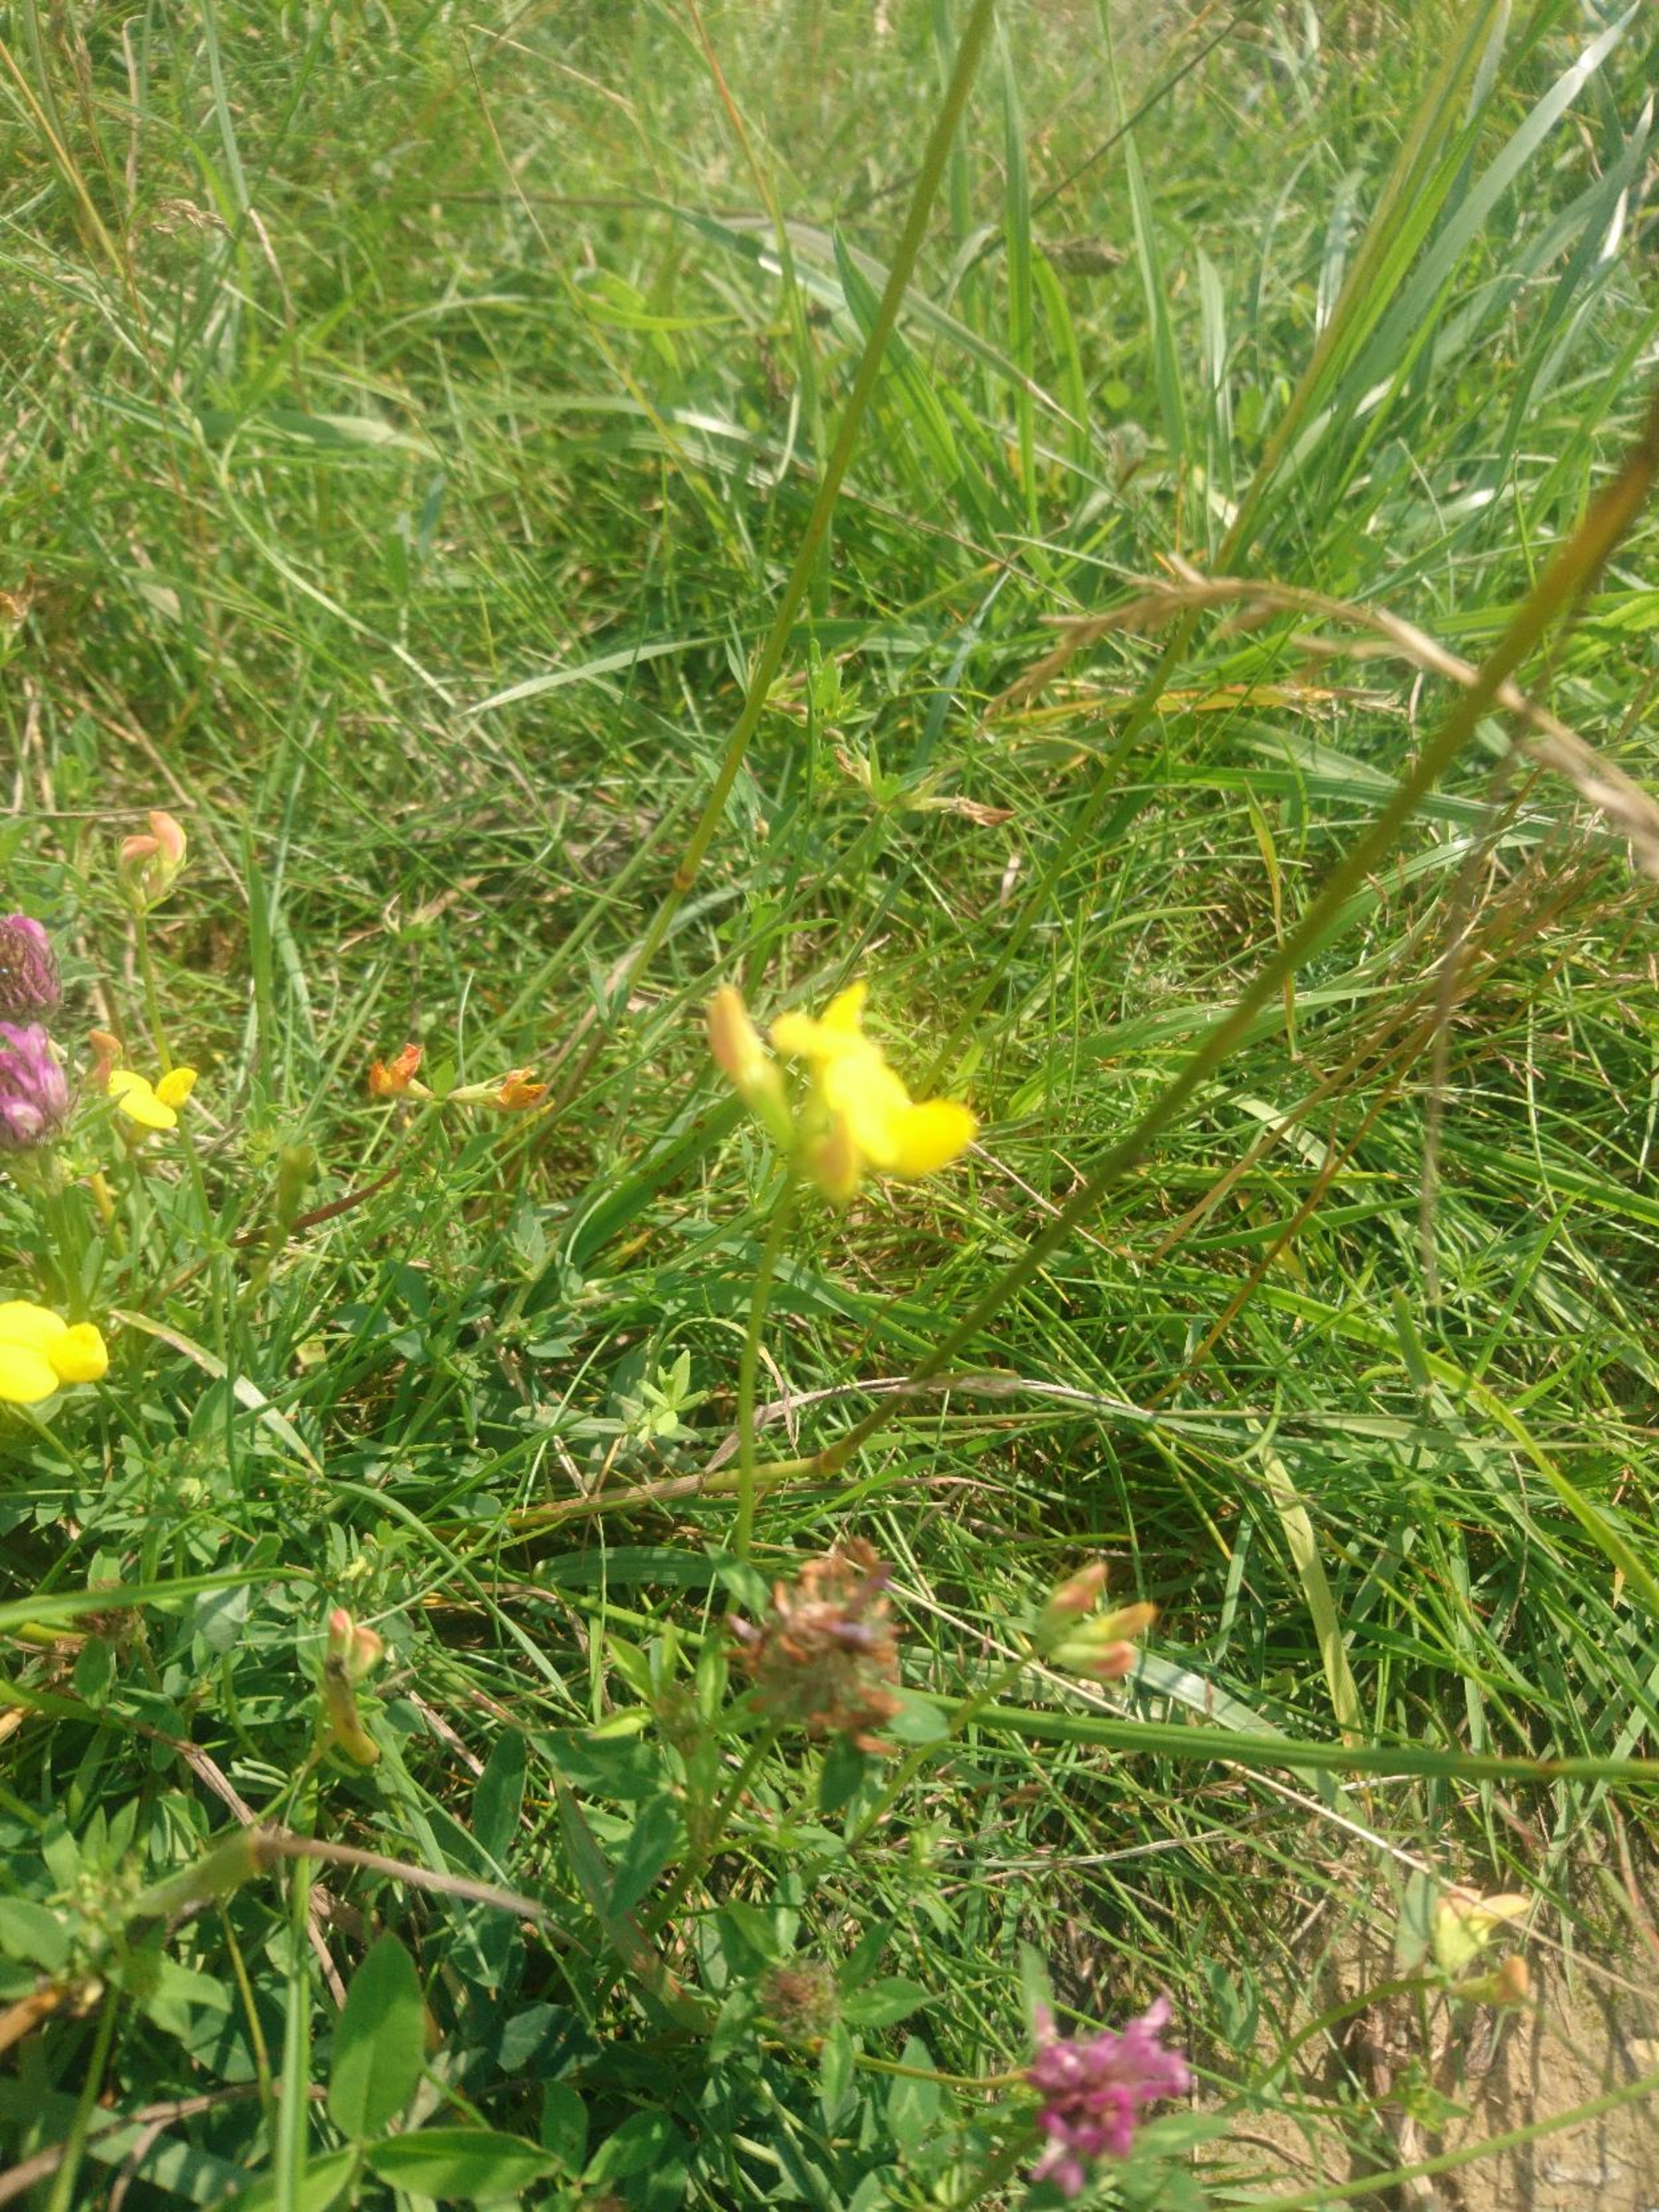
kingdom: Plantae
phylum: Tracheophyta
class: Magnoliopsida
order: Fabales
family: Fabaceae
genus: Lotus
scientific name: Lotus corniculatus
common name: Almindelig kællingetand
